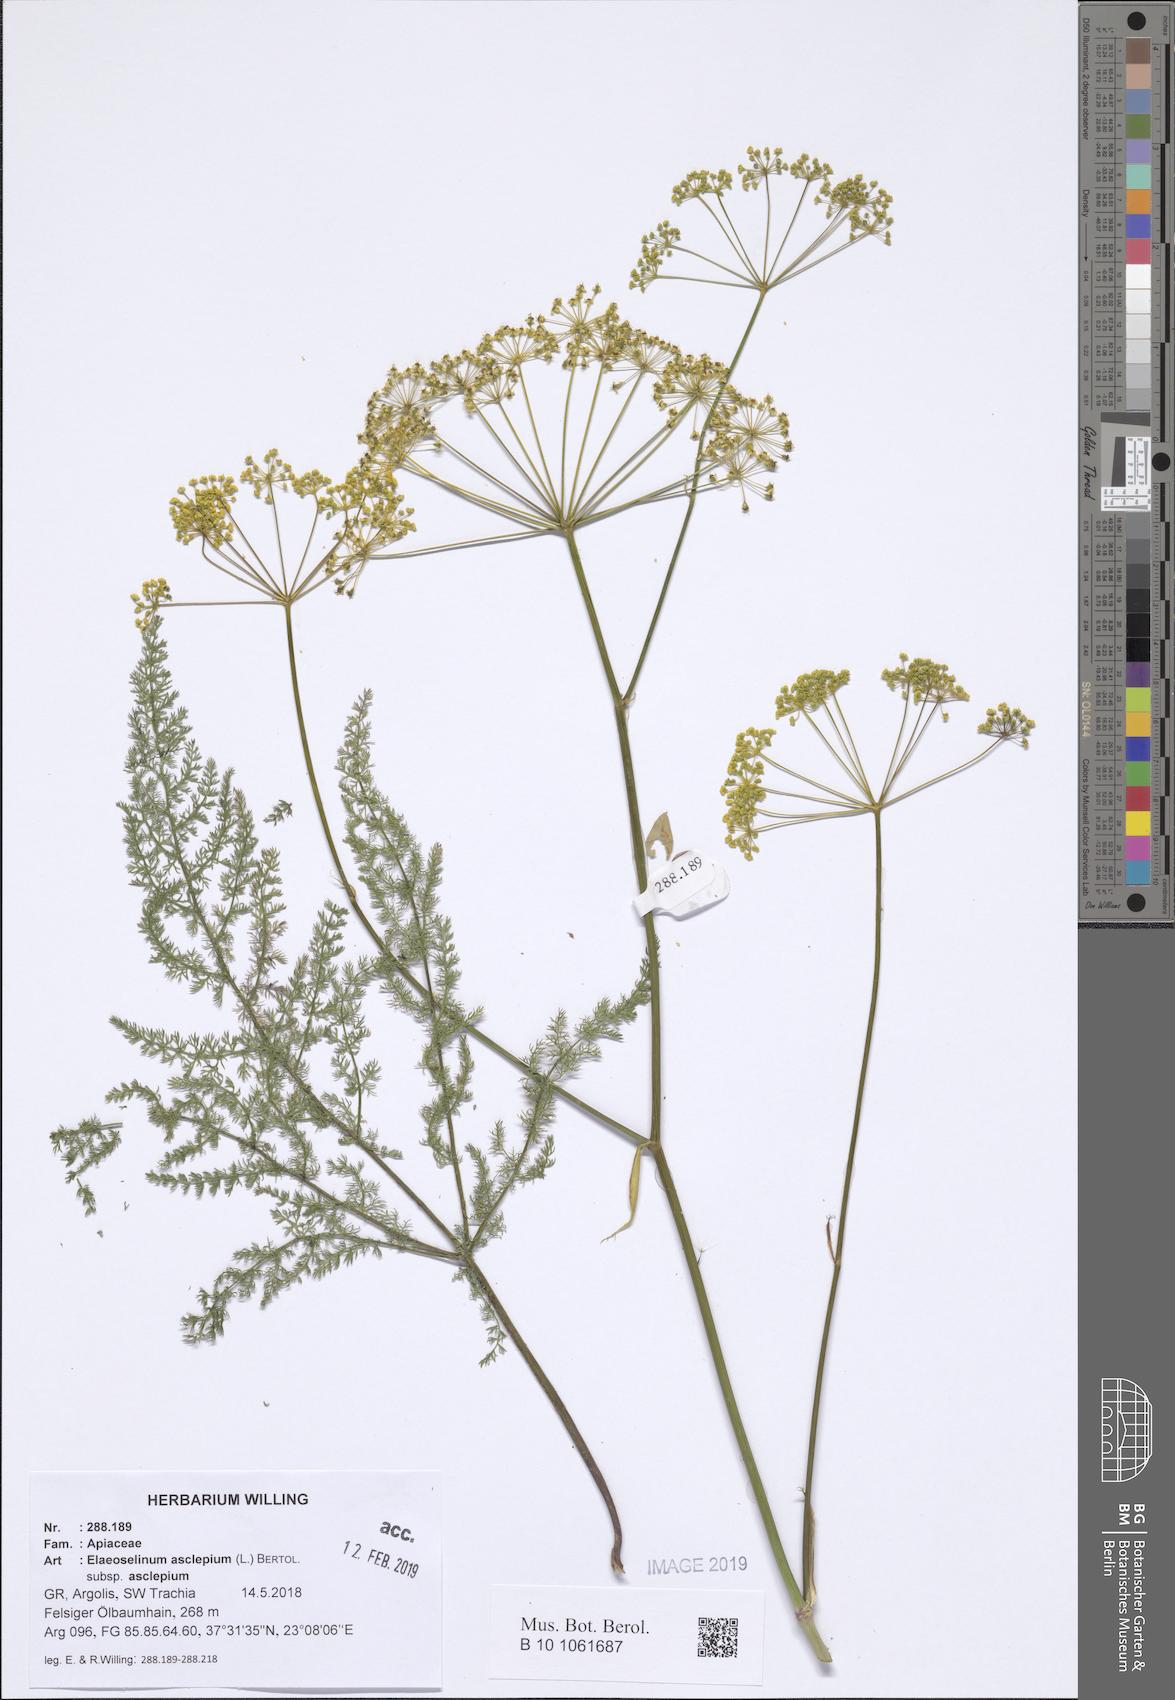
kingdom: Plantae
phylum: Tracheophyta
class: Magnoliopsida
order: Apiales
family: Apiaceae
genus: Thapsia
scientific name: Thapsia asclepium
